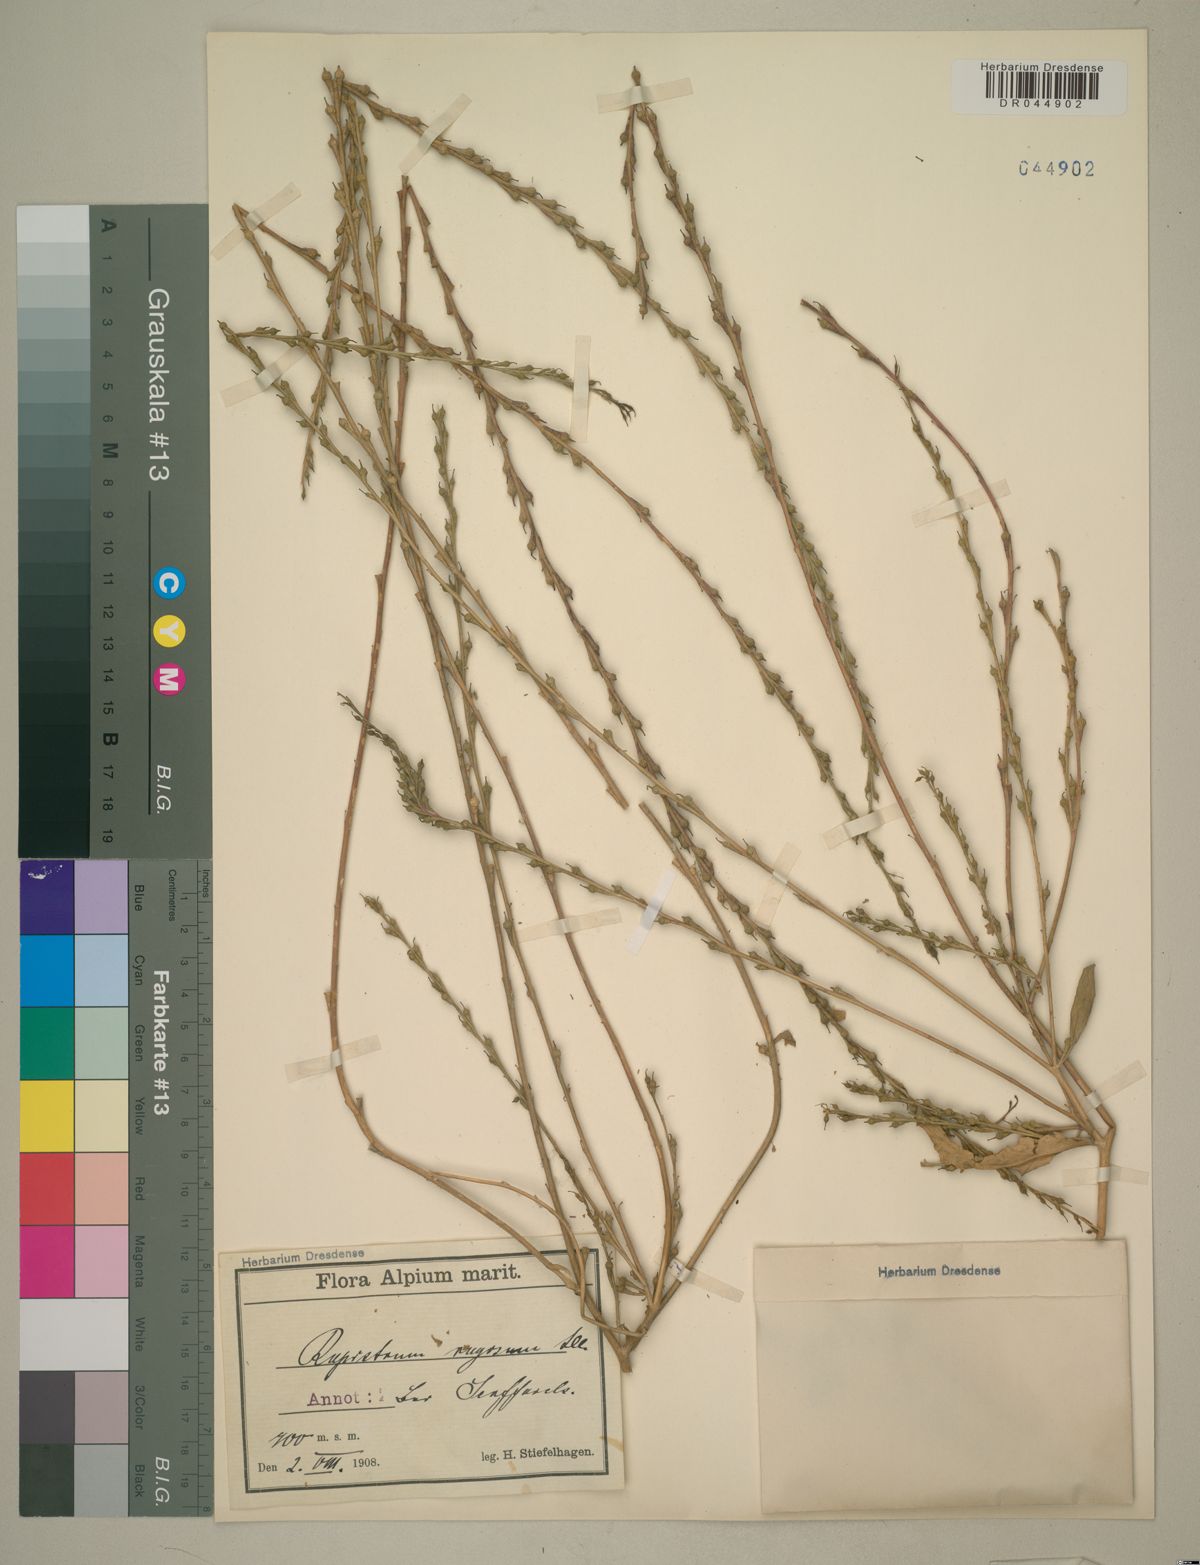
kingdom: Plantae
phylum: Tracheophyta
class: Magnoliopsida
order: Brassicales
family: Brassicaceae
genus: Rapistrum
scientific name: Rapistrum rugosum
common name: Annual bastardcabbage
